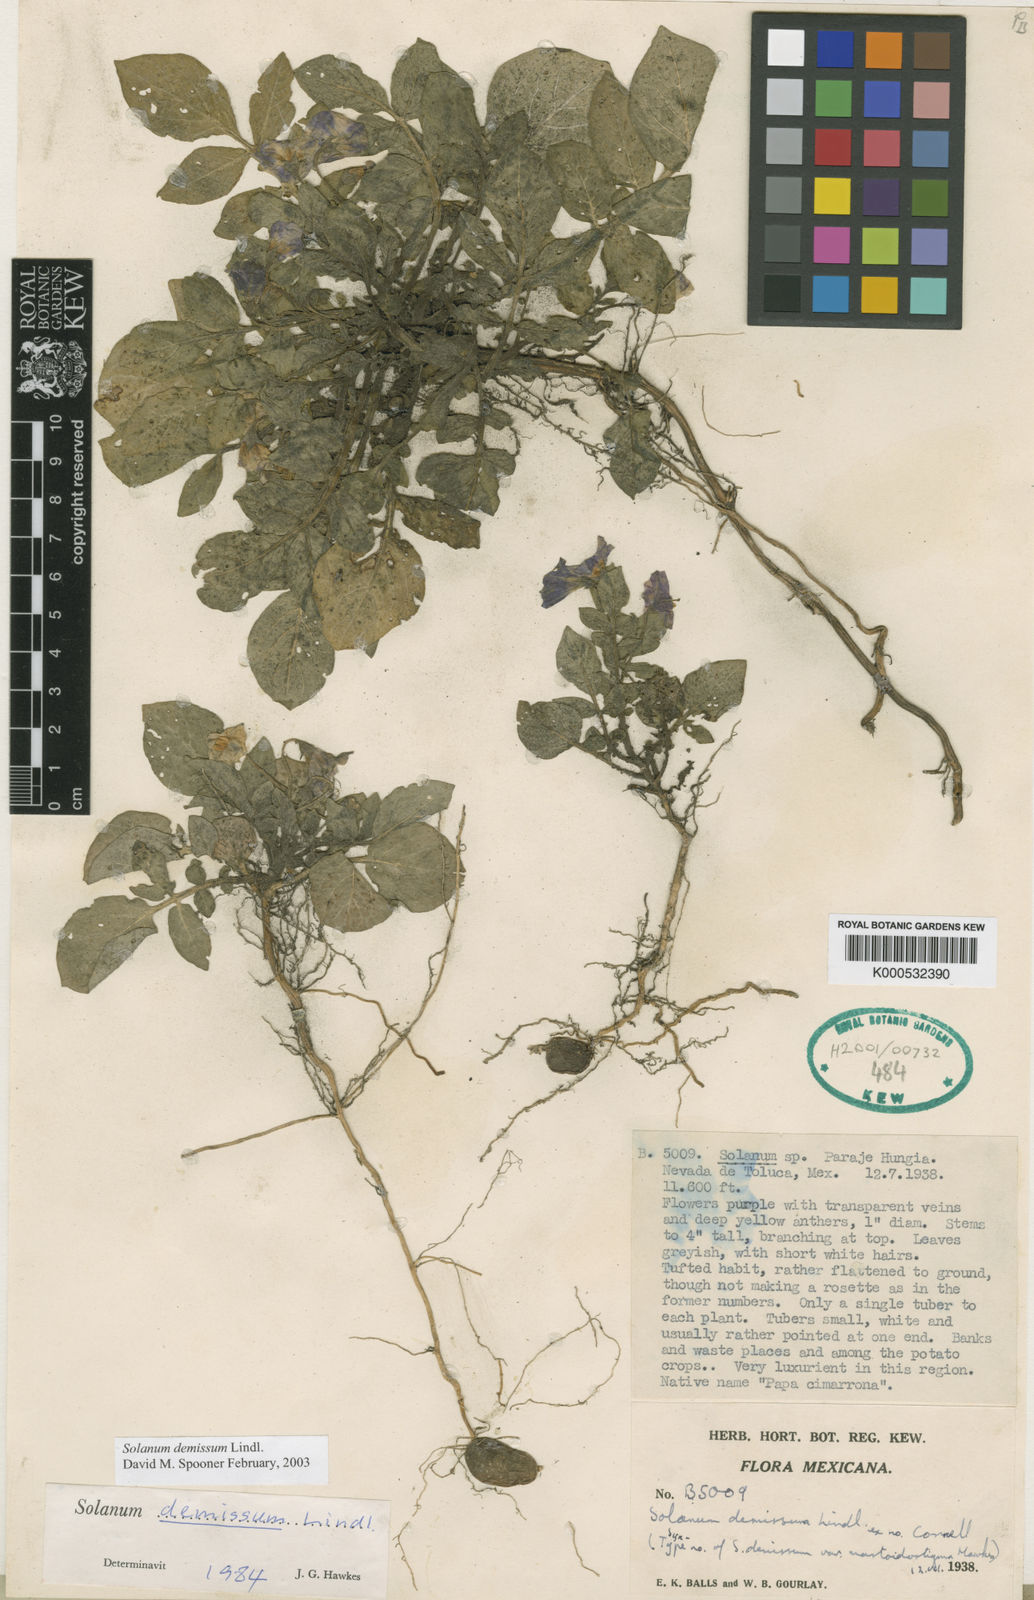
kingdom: Plantae
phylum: Tracheophyta
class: Magnoliopsida
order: Solanales
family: Solanaceae
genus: Solanum
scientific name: Solanum demissum
